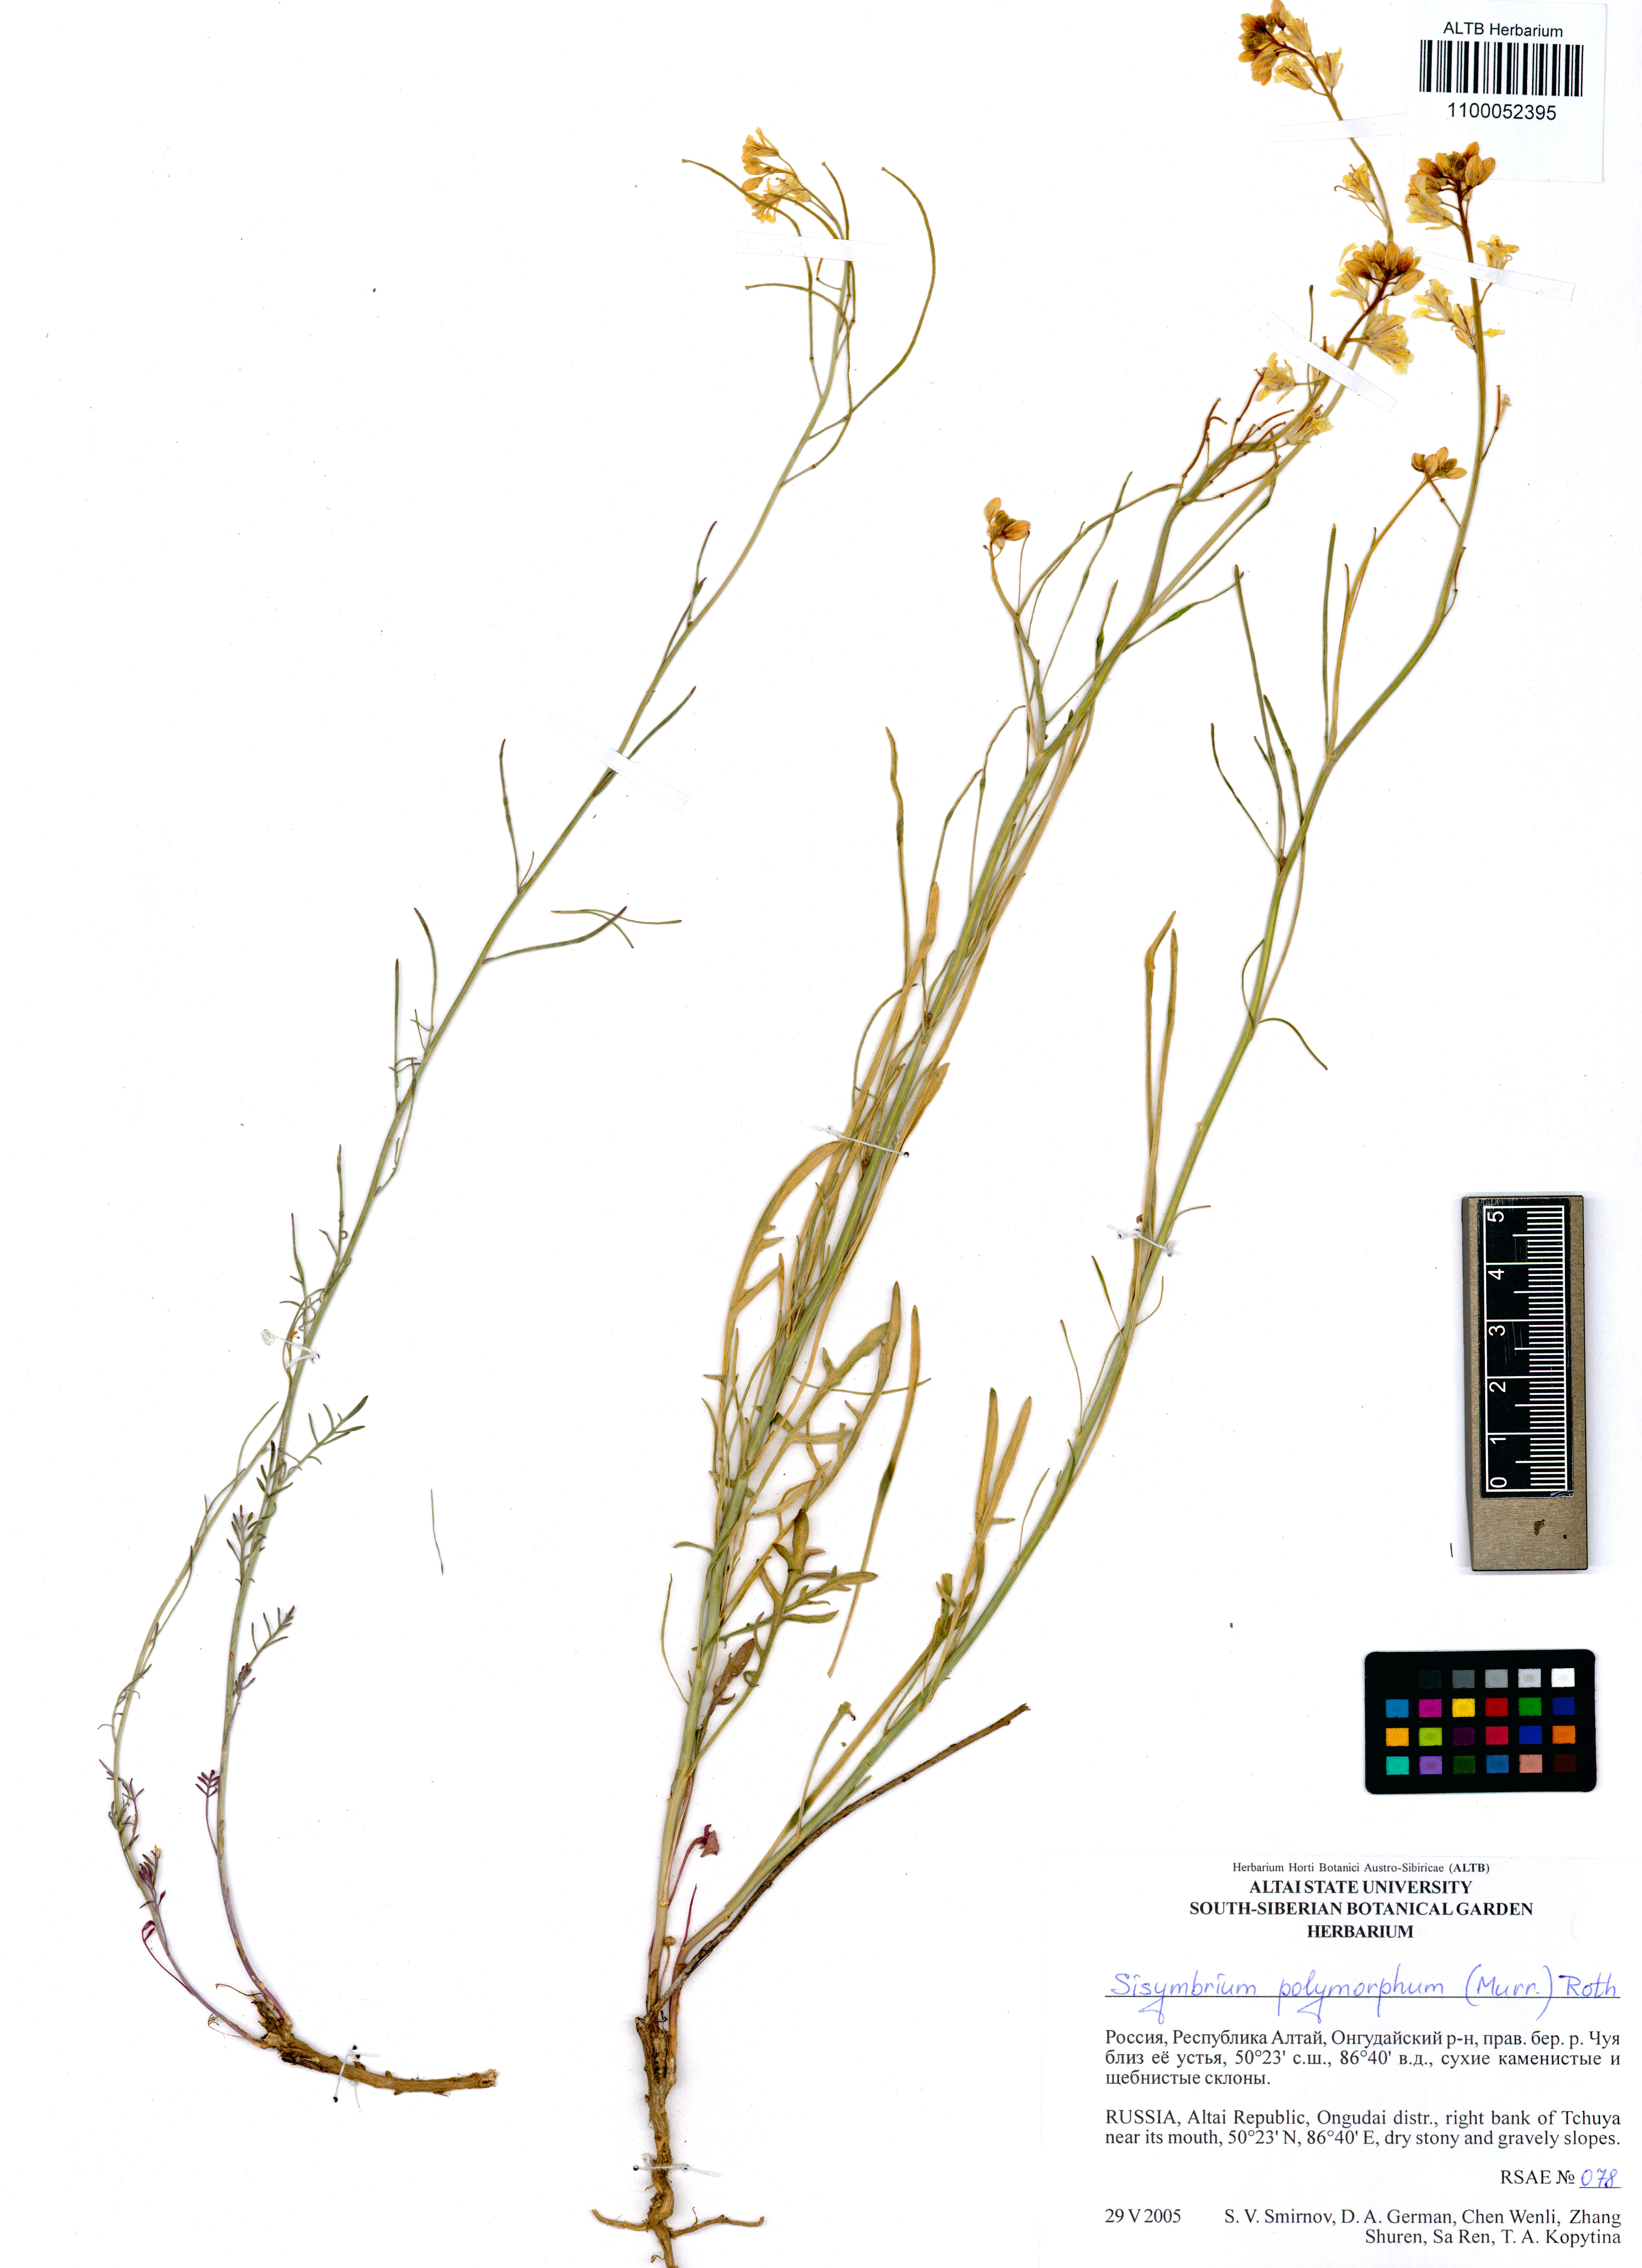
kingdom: Plantae
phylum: Tracheophyta
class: Magnoliopsida
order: Brassicales
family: Brassicaceae
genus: Sisymbrium
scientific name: Sisymbrium polymorphum
